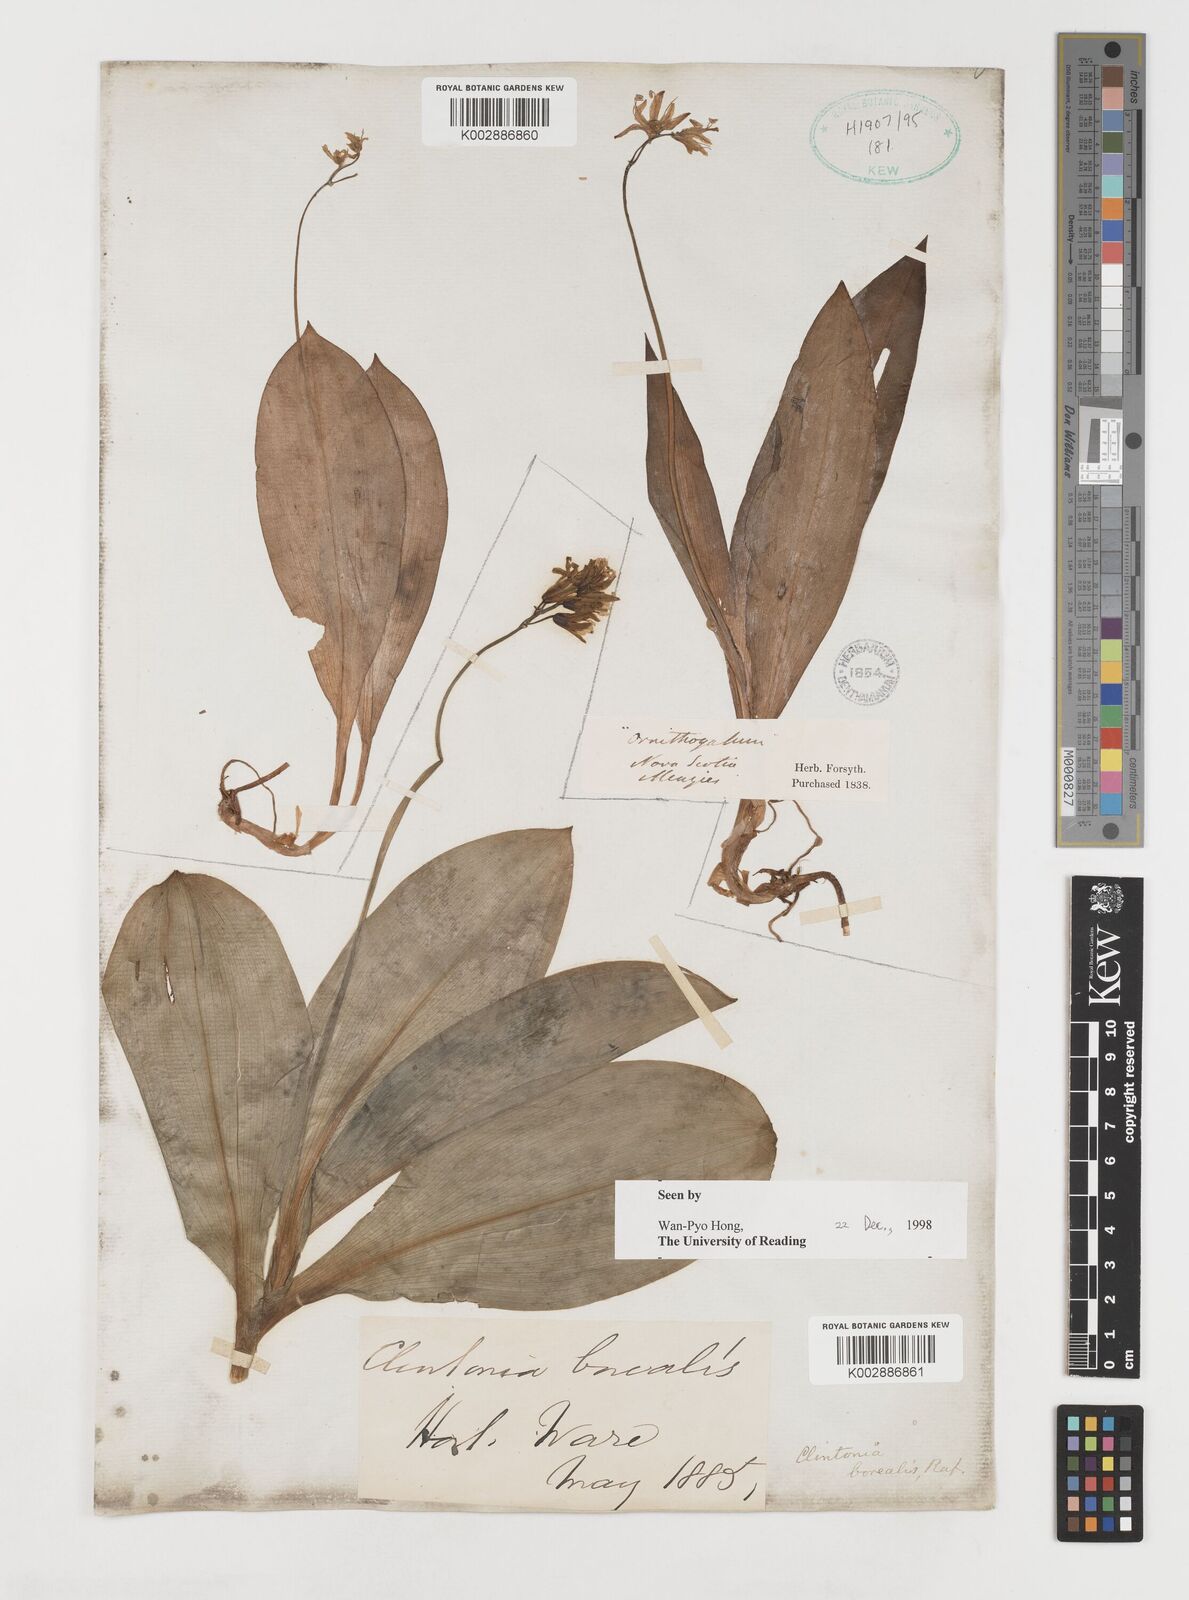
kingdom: Plantae
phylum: Tracheophyta
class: Liliopsida
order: Liliales
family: Liliaceae
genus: Clintonia
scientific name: Clintonia borealis
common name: Yellow clintonia
